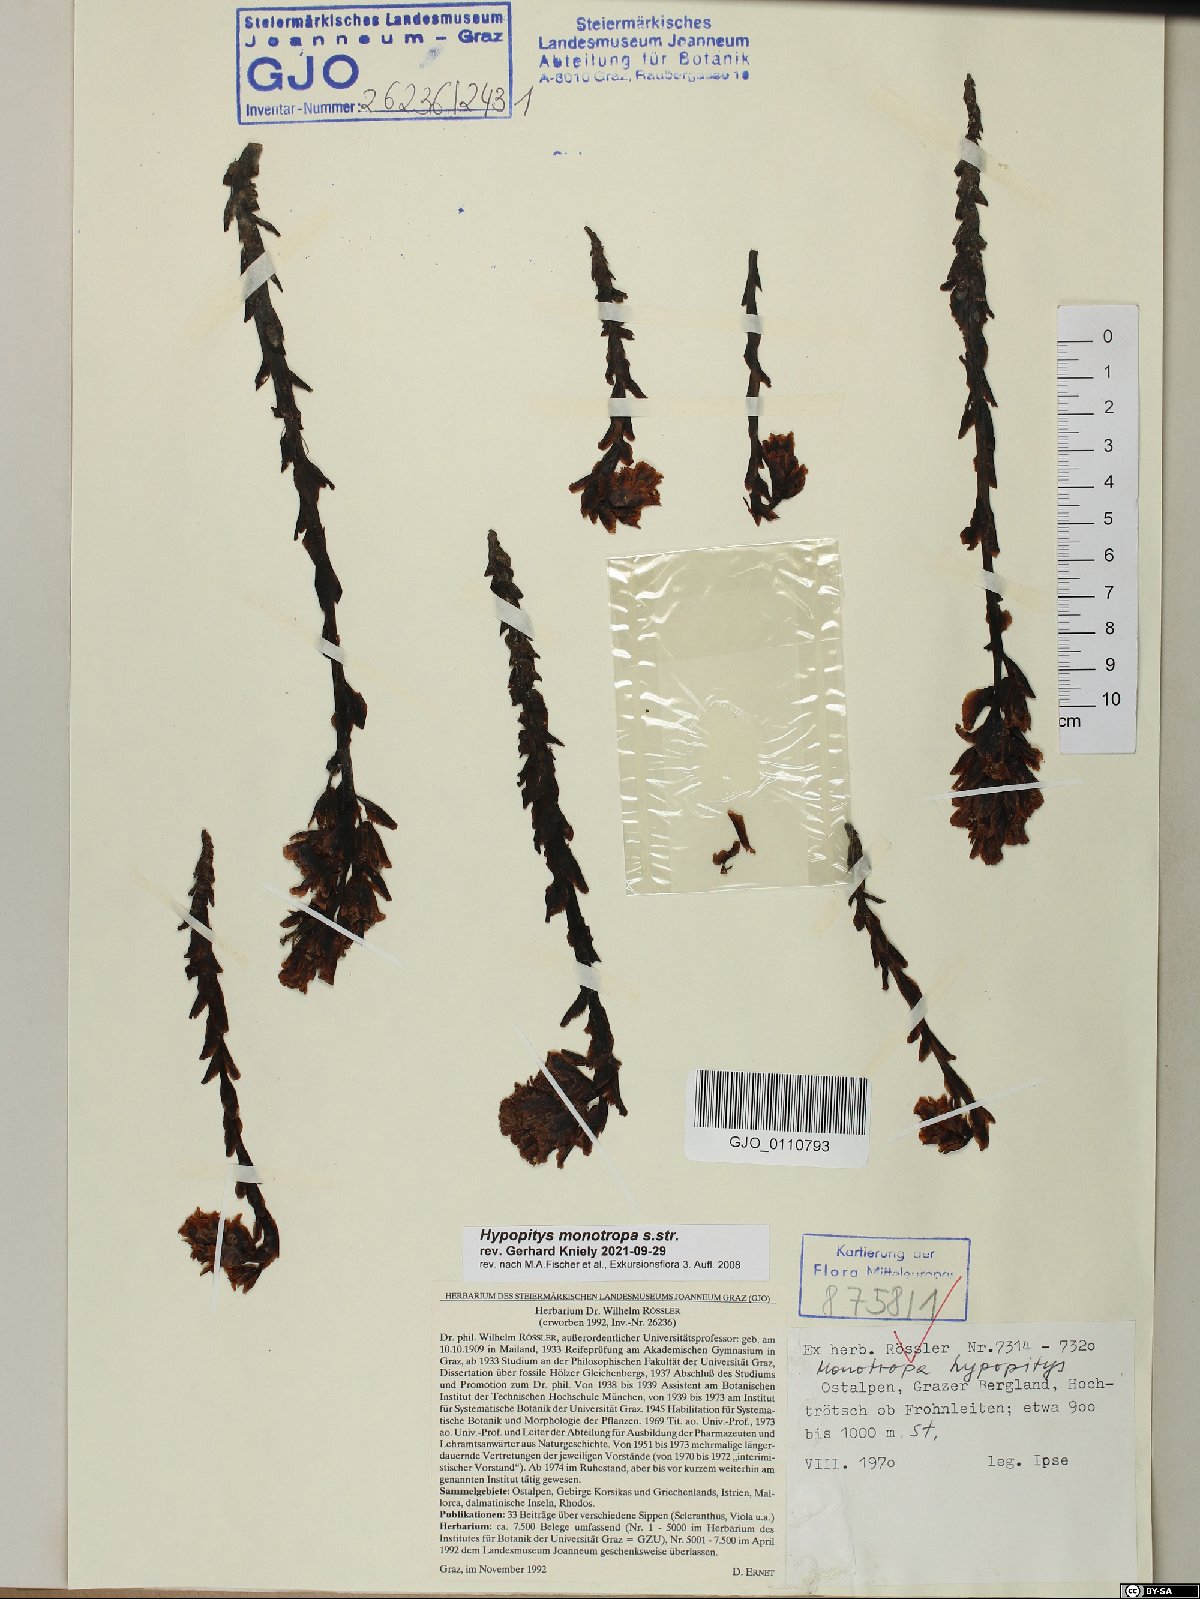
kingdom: Plantae
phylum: Tracheophyta
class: Magnoliopsida
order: Ericales
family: Ericaceae
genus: Hypopitys
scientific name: Hypopitys monotropa
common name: Yellow bird's-nest
